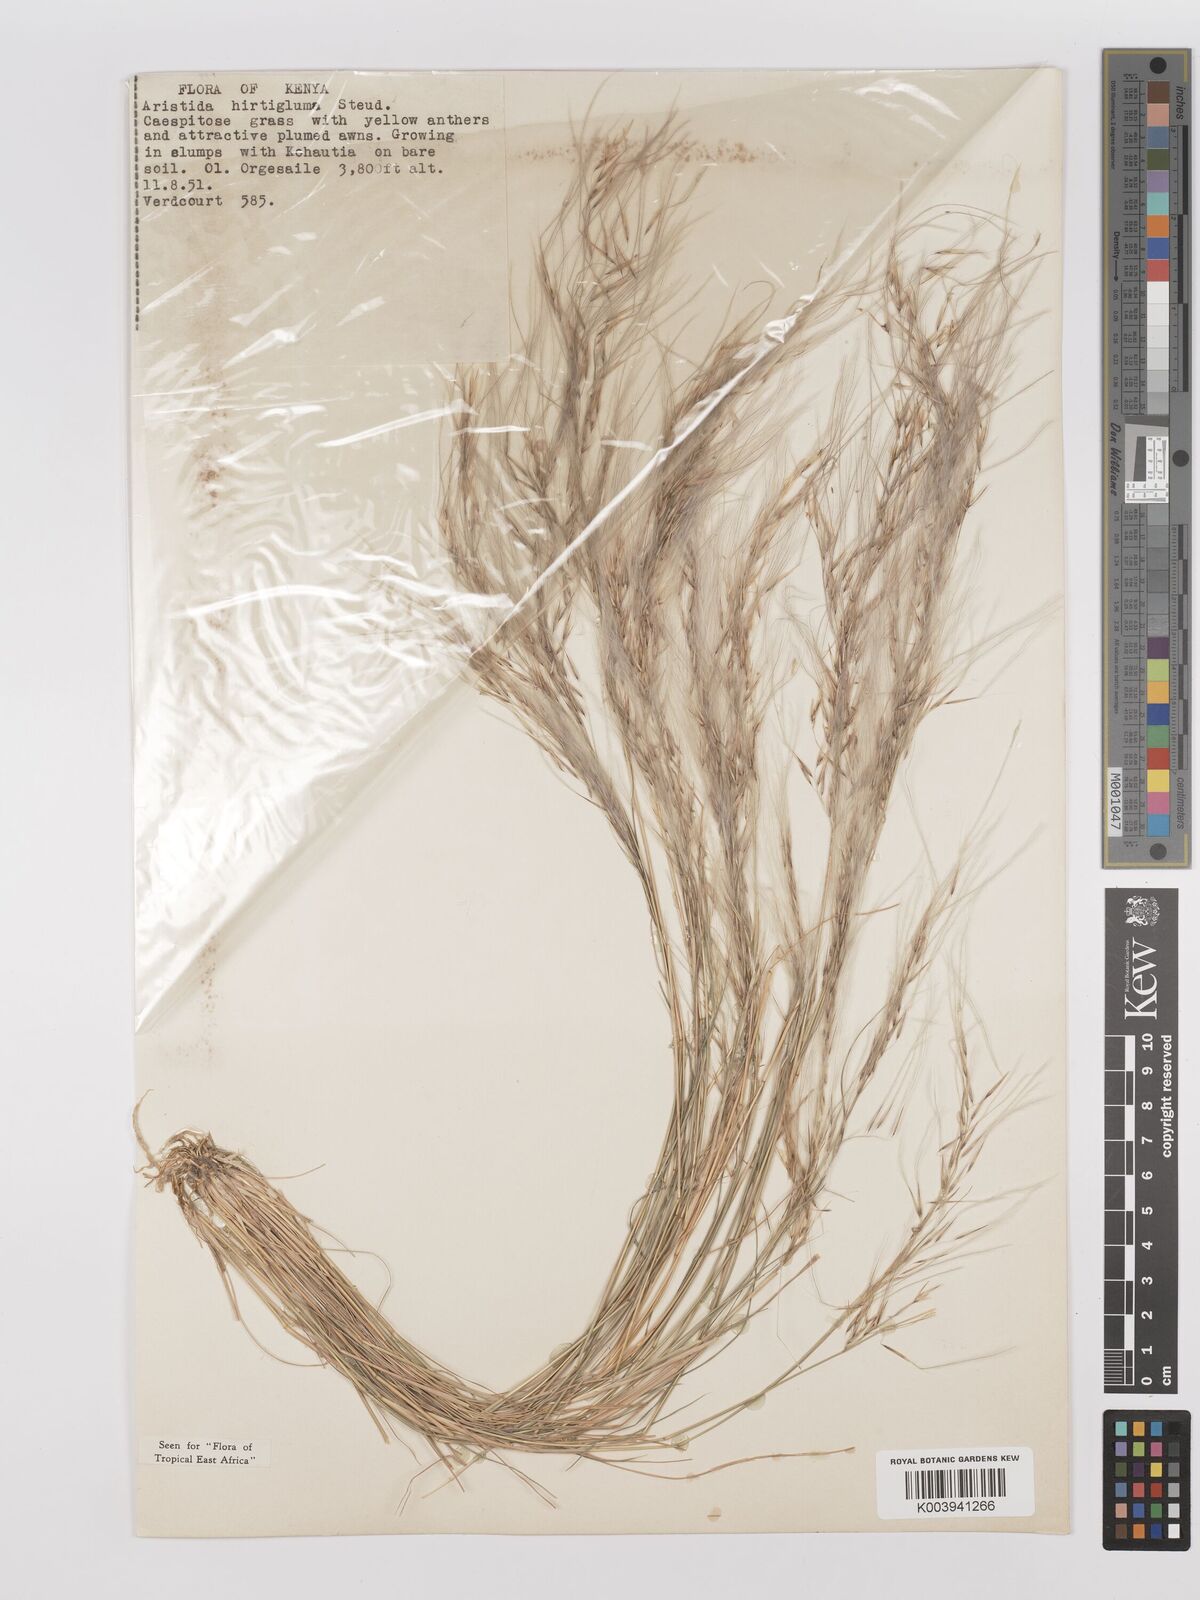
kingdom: Plantae
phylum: Tracheophyta
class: Liliopsida
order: Poales
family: Poaceae
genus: Stipagrostis
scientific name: Stipagrostis hirtigluma
